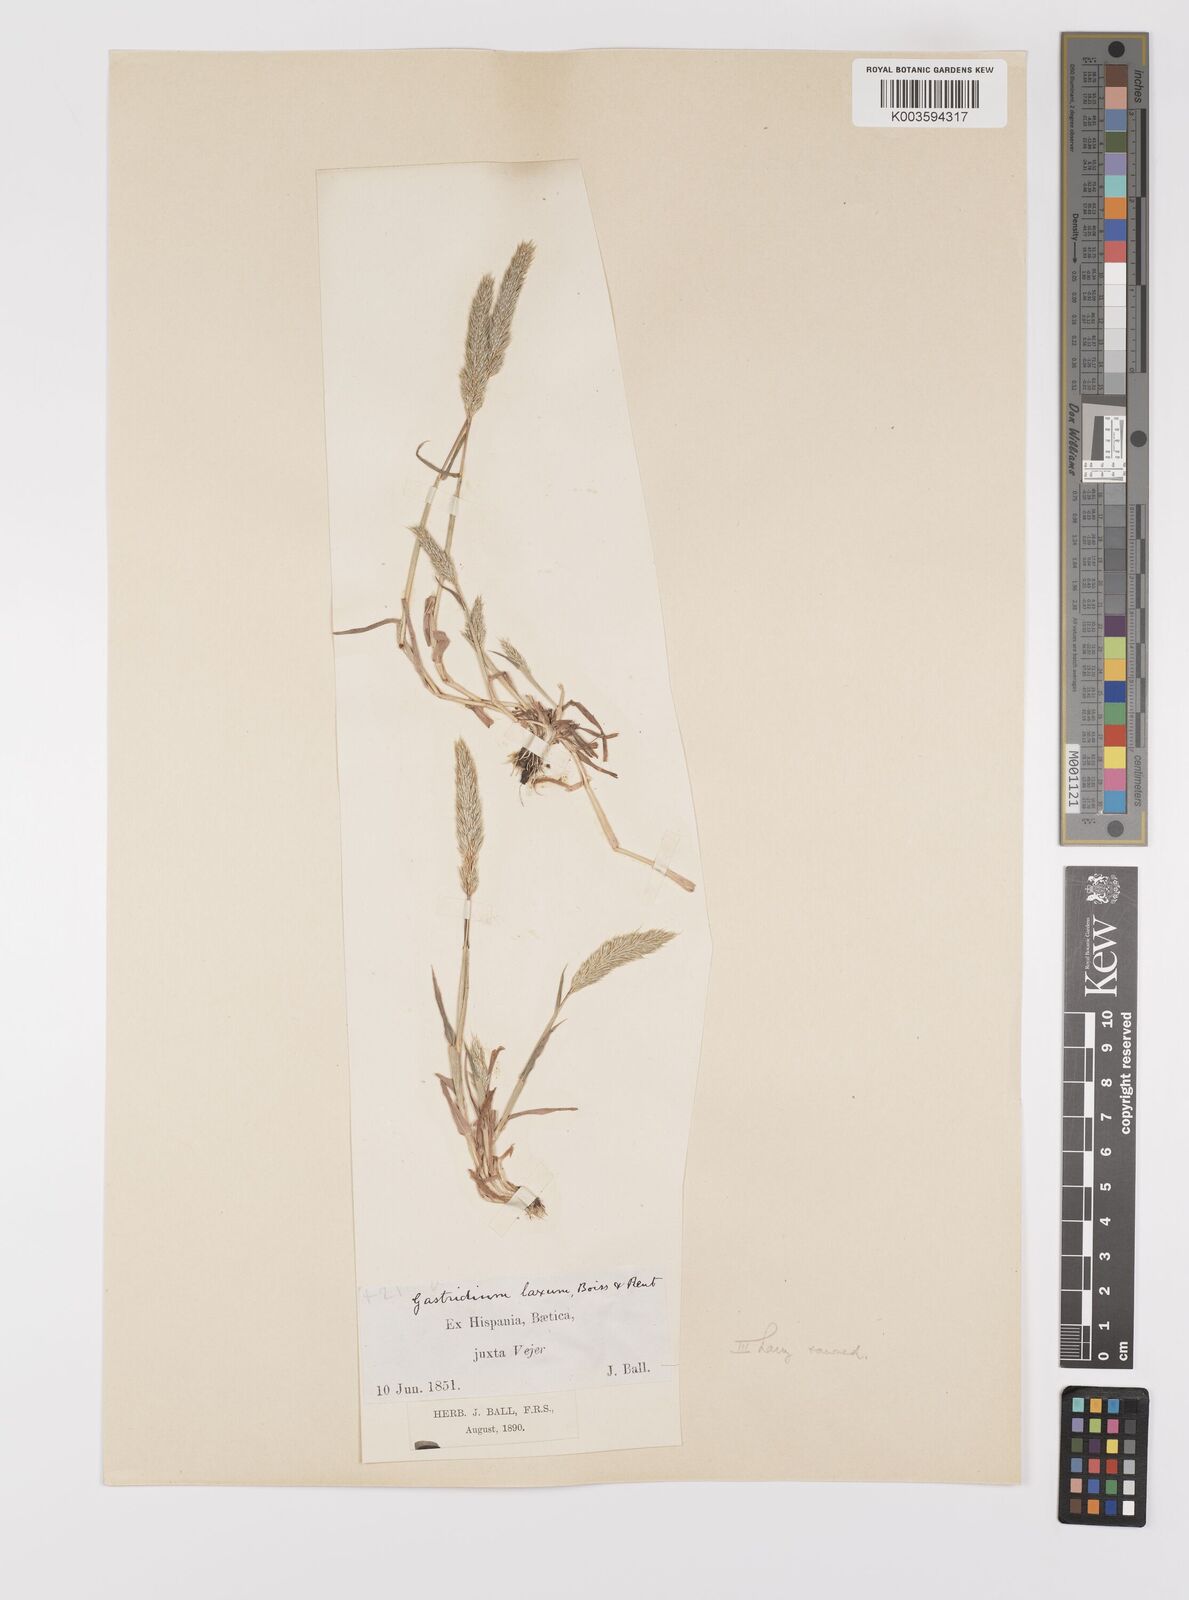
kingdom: Plantae
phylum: Tracheophyta
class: Liliopsida
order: Poales
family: Poaceae
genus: Gastridium
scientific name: Gastridium ventricosum
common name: Nit-grass
